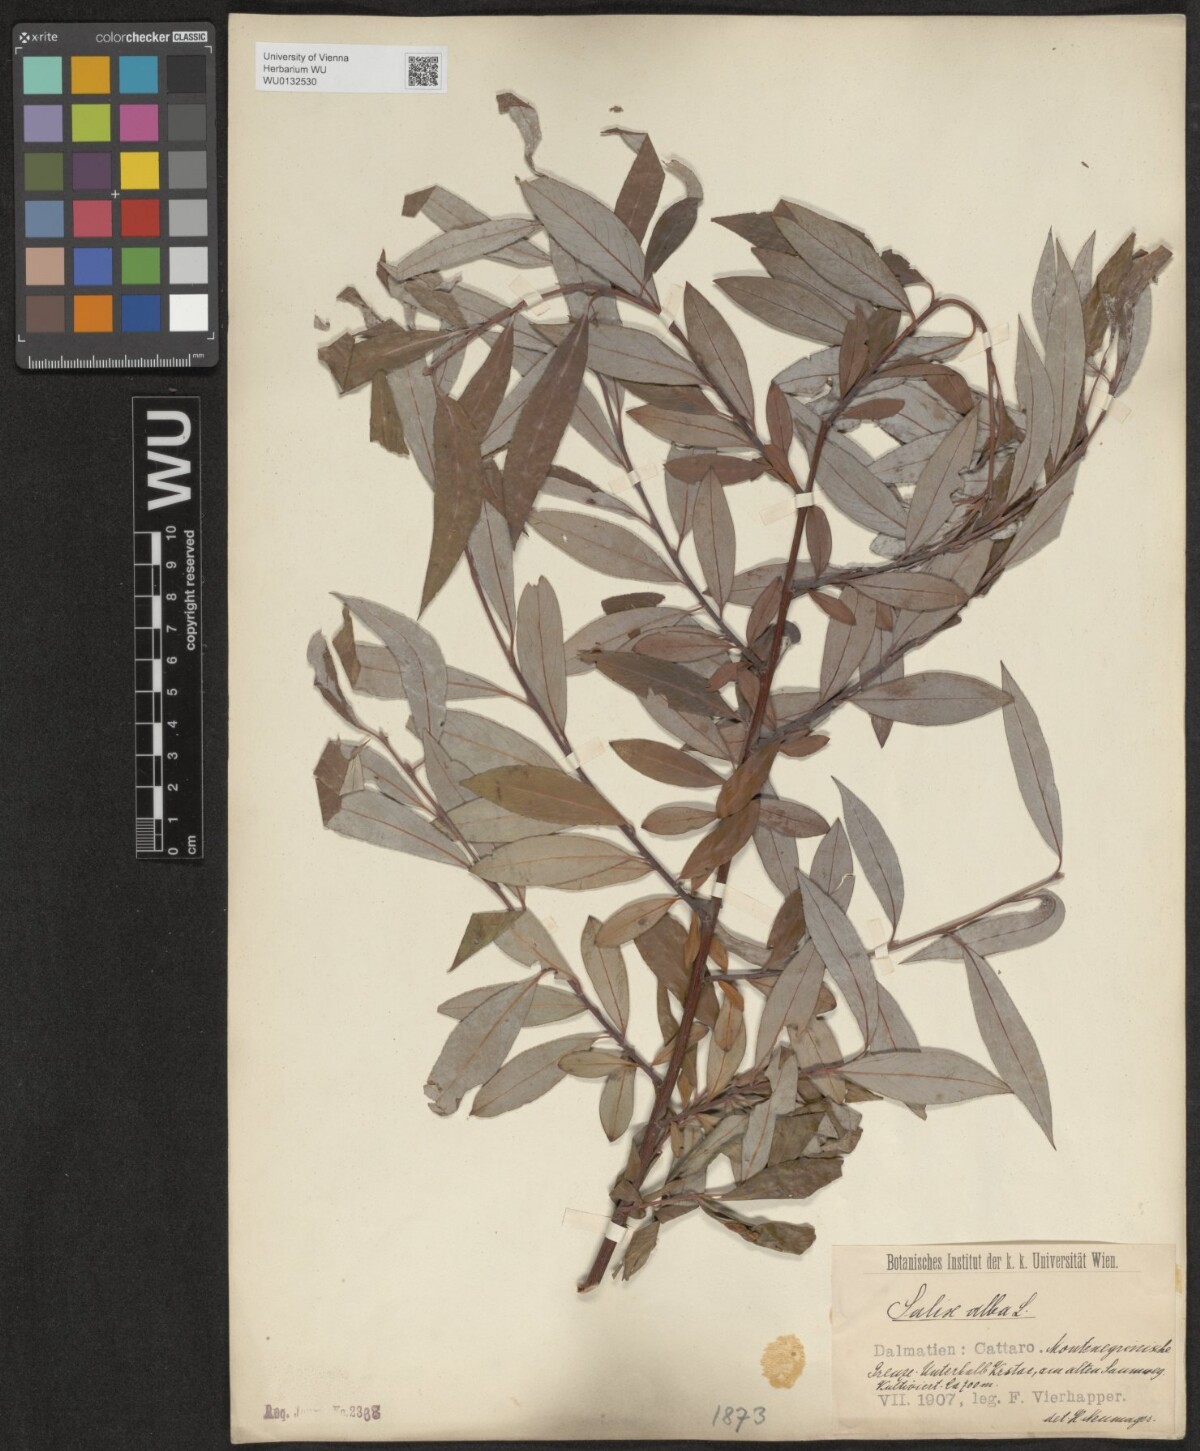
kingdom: Plantae
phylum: Tracheophyta
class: Magnoliopsida
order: Malpighiales
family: Salicaceae
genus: Salix
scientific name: Salix alba
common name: White willow
